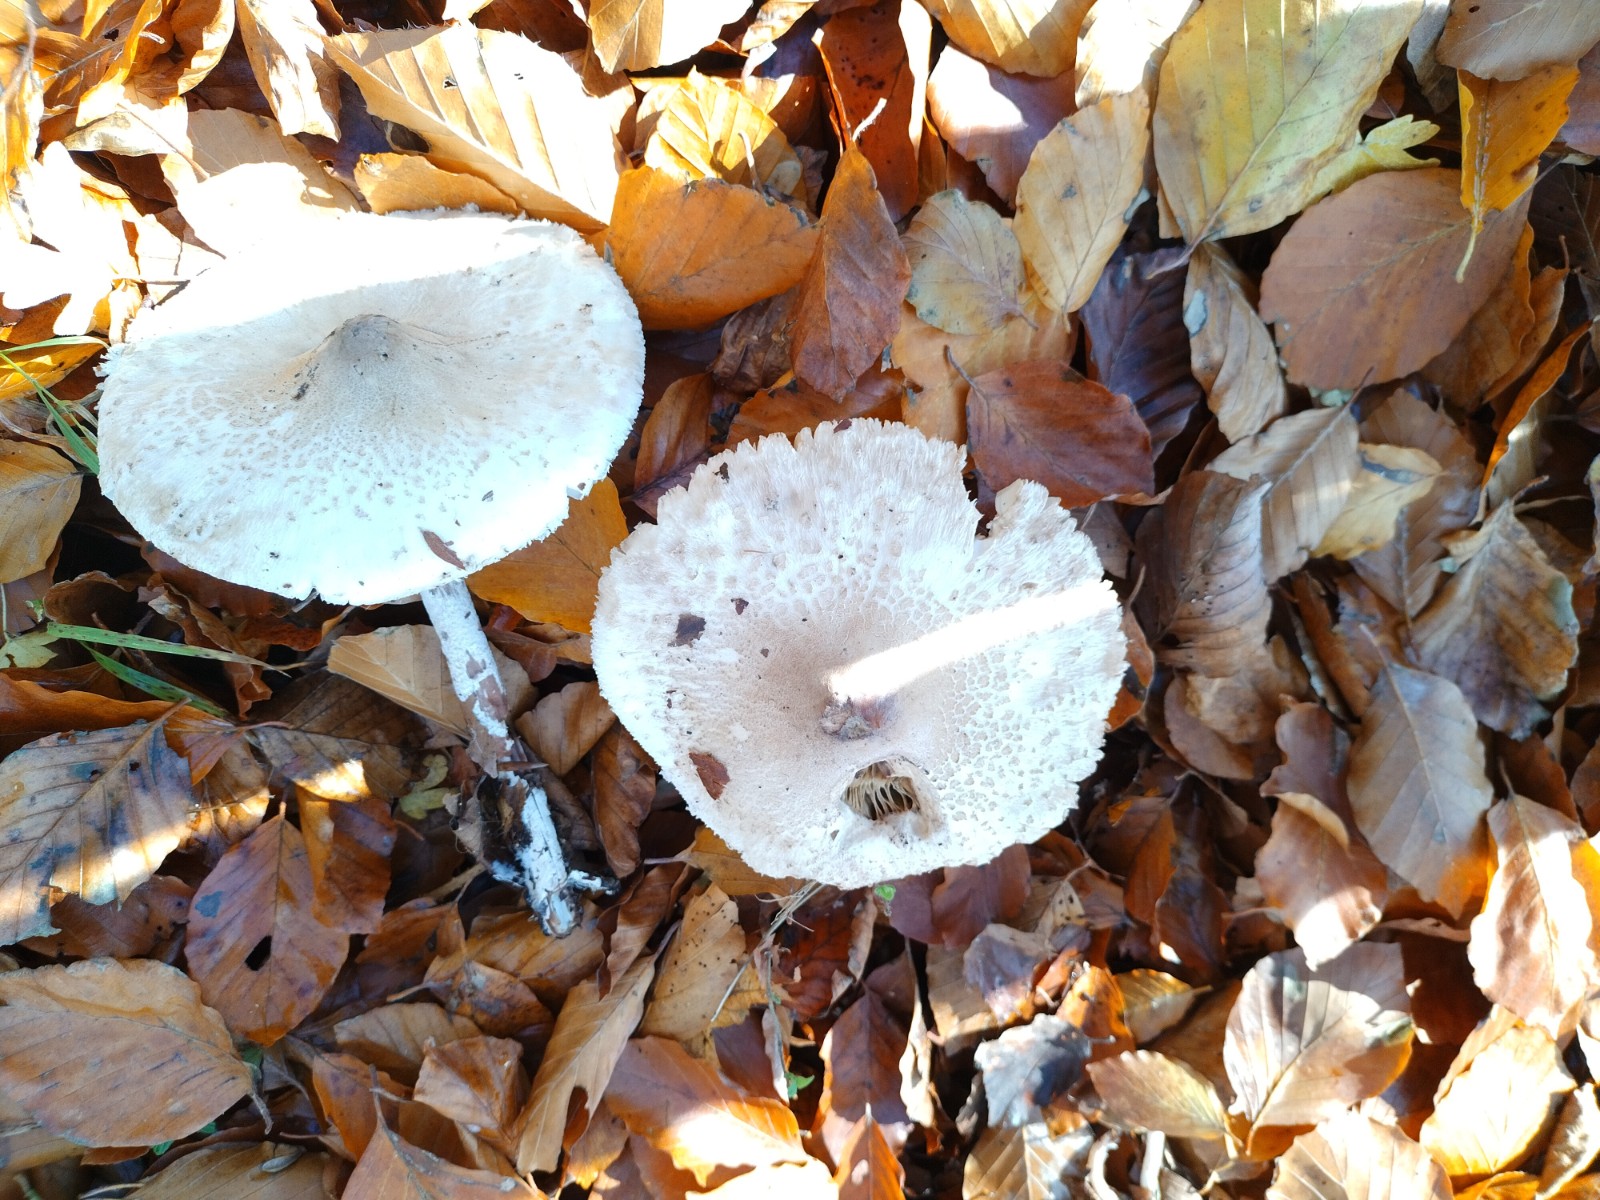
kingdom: Fungi
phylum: Basidiomycota
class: Agaricomycetes
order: Agaricales
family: Agaricaceae
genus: Macrolepiota
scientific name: Macrolepiota mastoidea
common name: puklet kæmpeparasolhat
